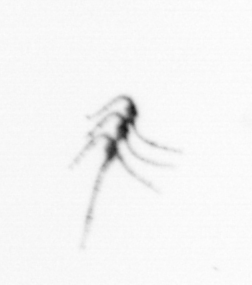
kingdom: Chromista
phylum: Myzozoa
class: Dinophyceae
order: Gonyaulacales
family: Ceratiaceae
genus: Ceratium
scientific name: Ceratium
